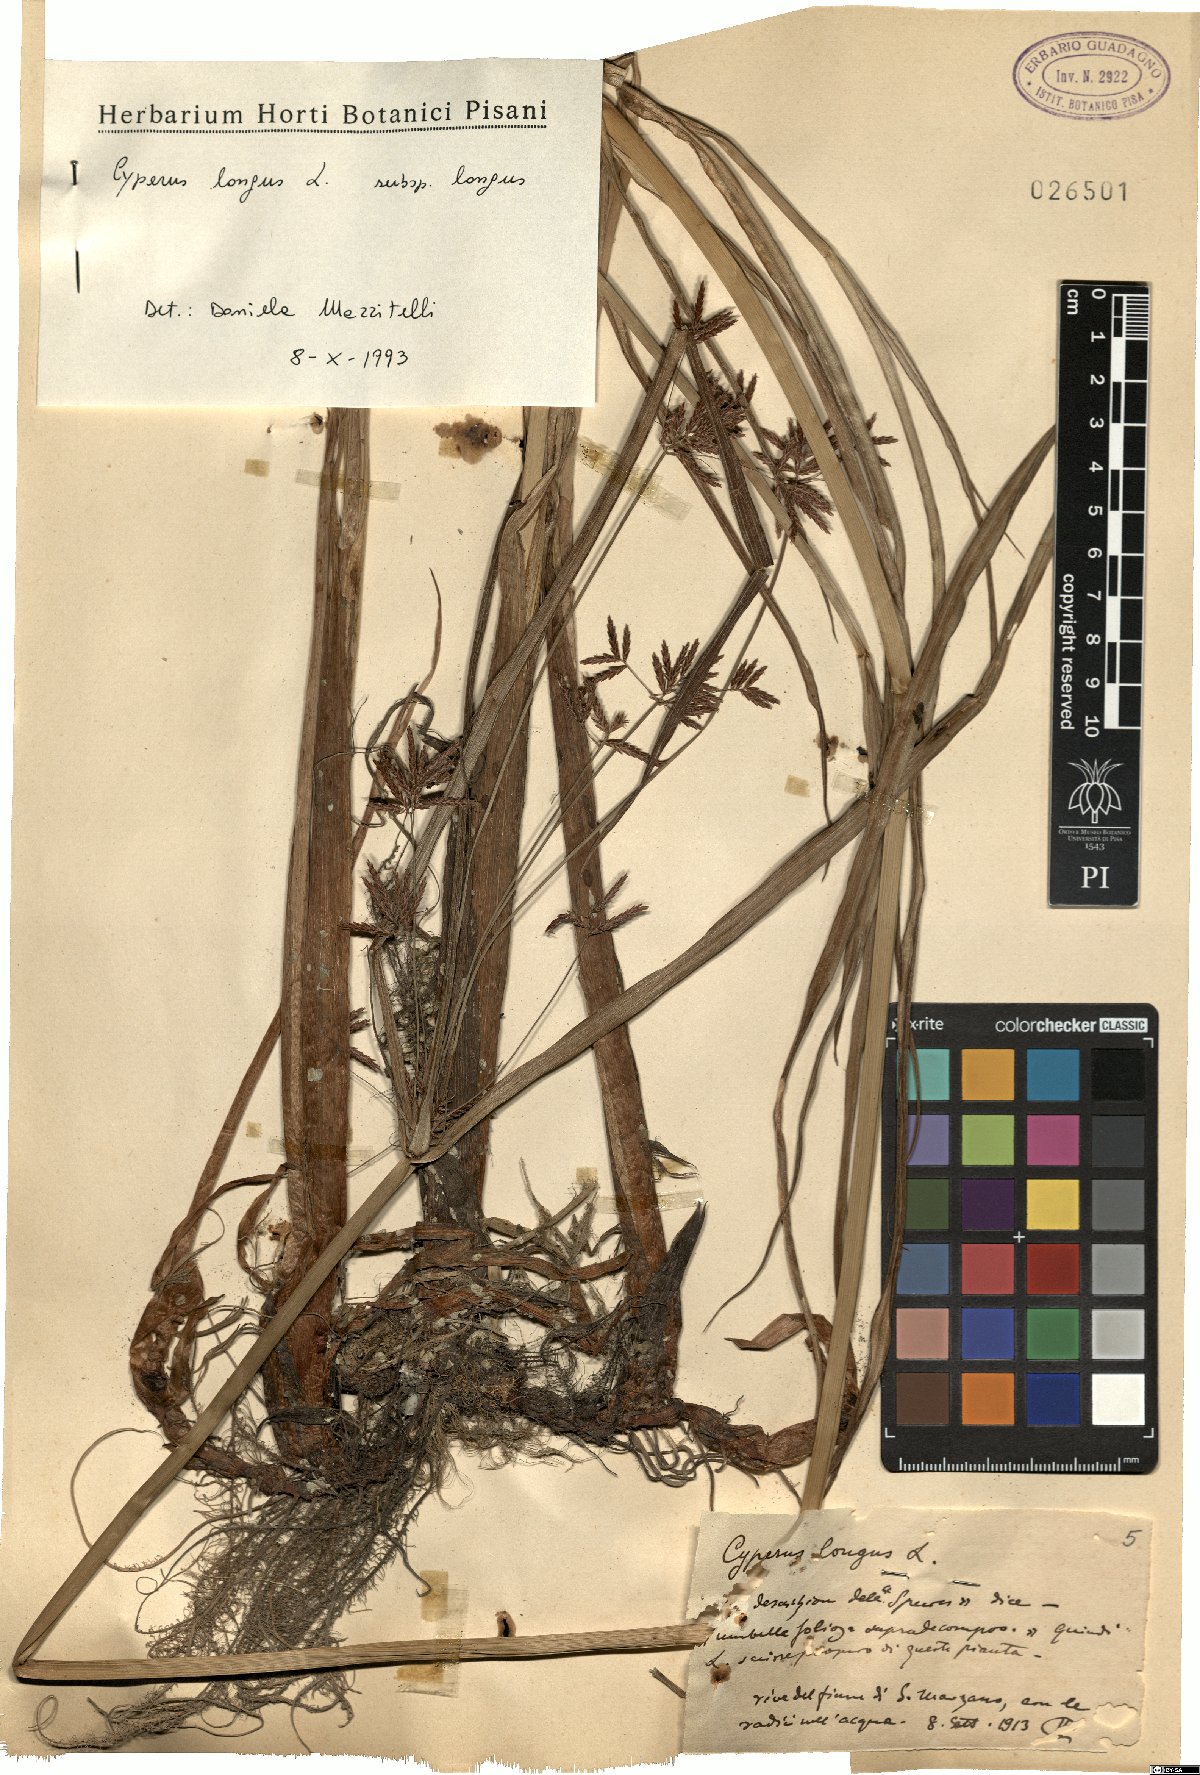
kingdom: Plantae
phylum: Tracheophyta
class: Liliopsida
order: Poales
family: Cyperaceae
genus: Cyperus
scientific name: Cyperus longus
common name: Galingale
